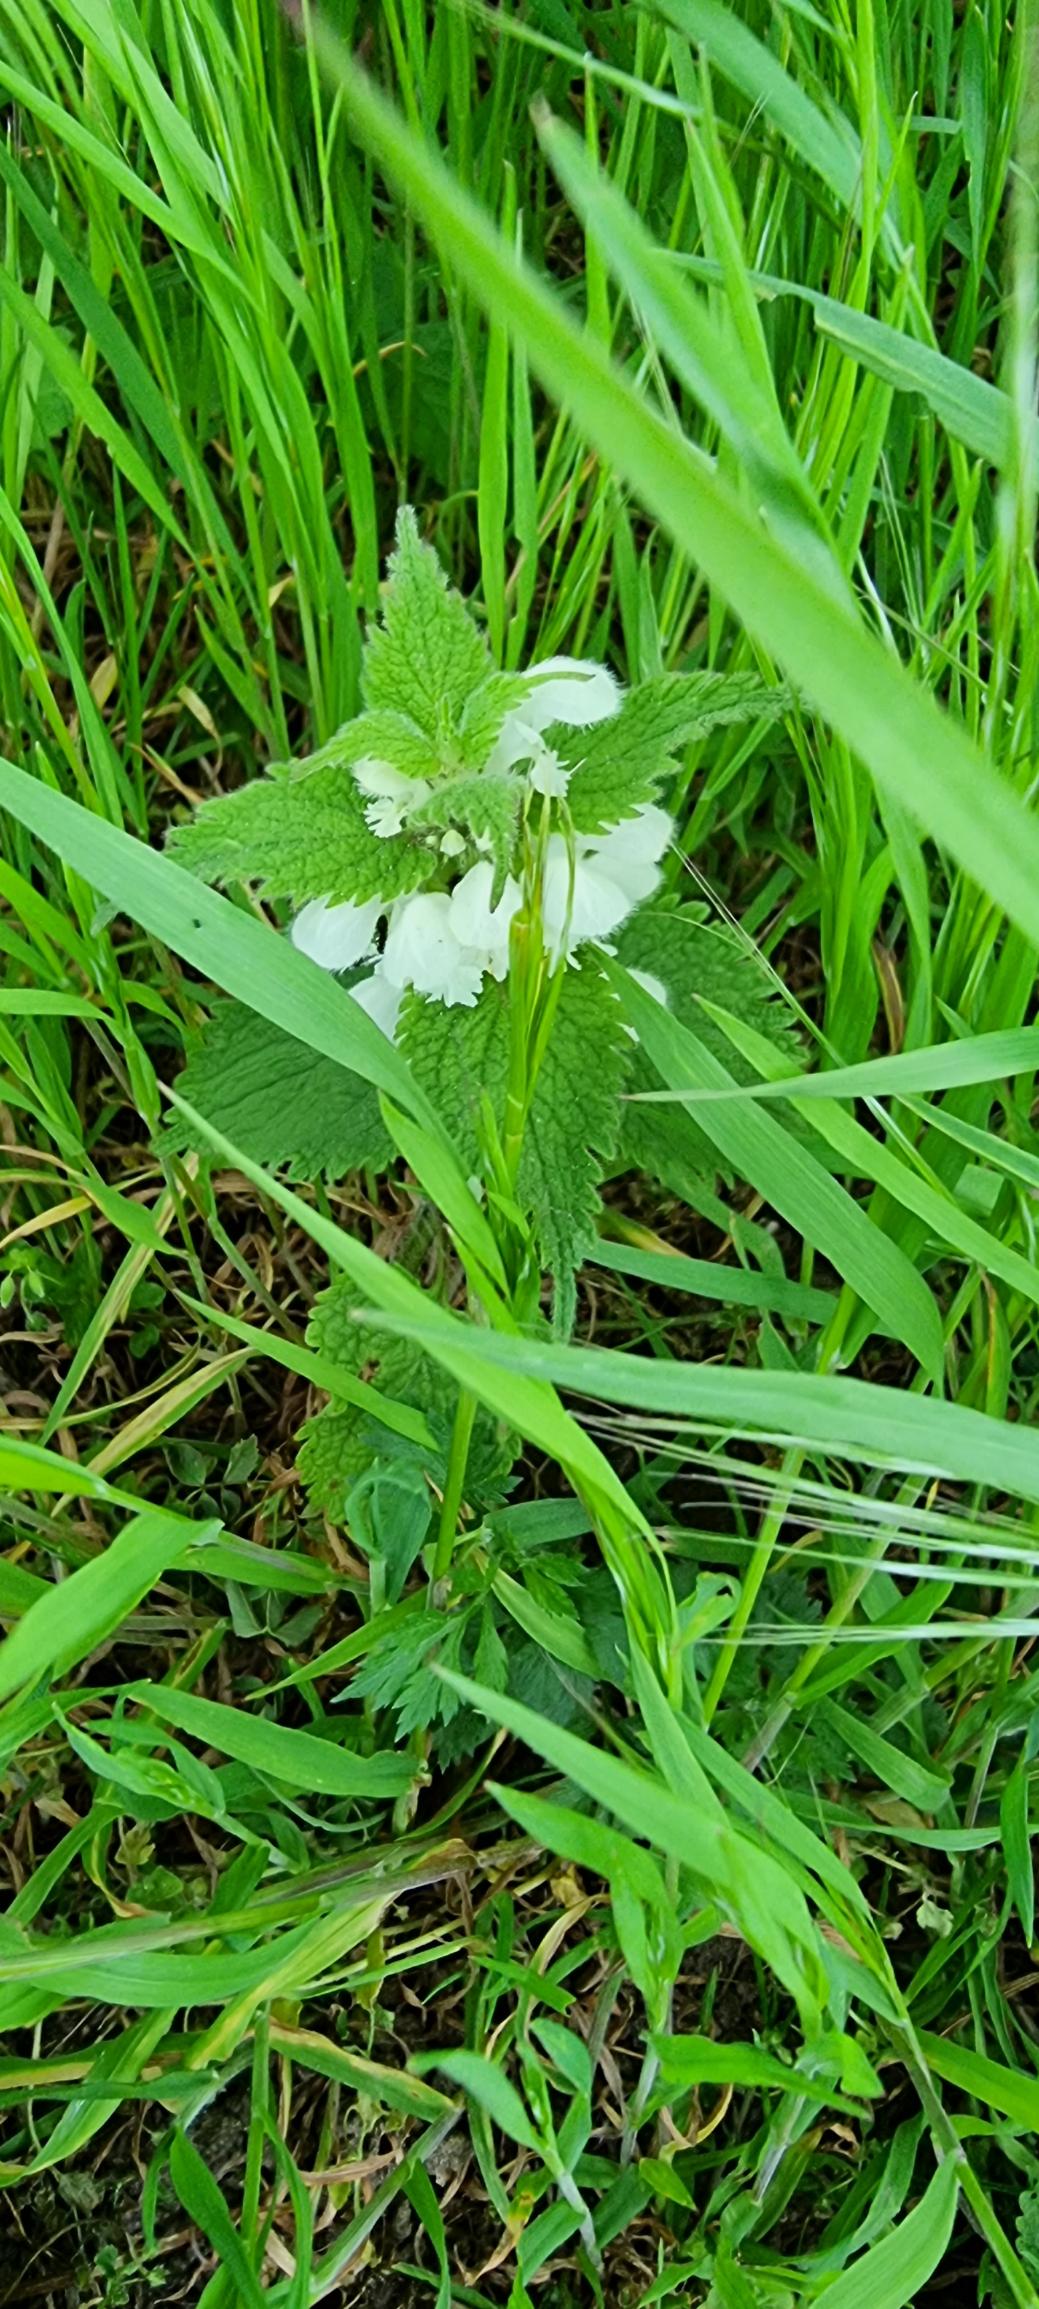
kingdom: Plantae
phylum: Tracheophyta
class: Magnoliopsida
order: Lamiales
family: Lamiaceae
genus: Lamium
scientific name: Lamium album
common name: Døvnælde
